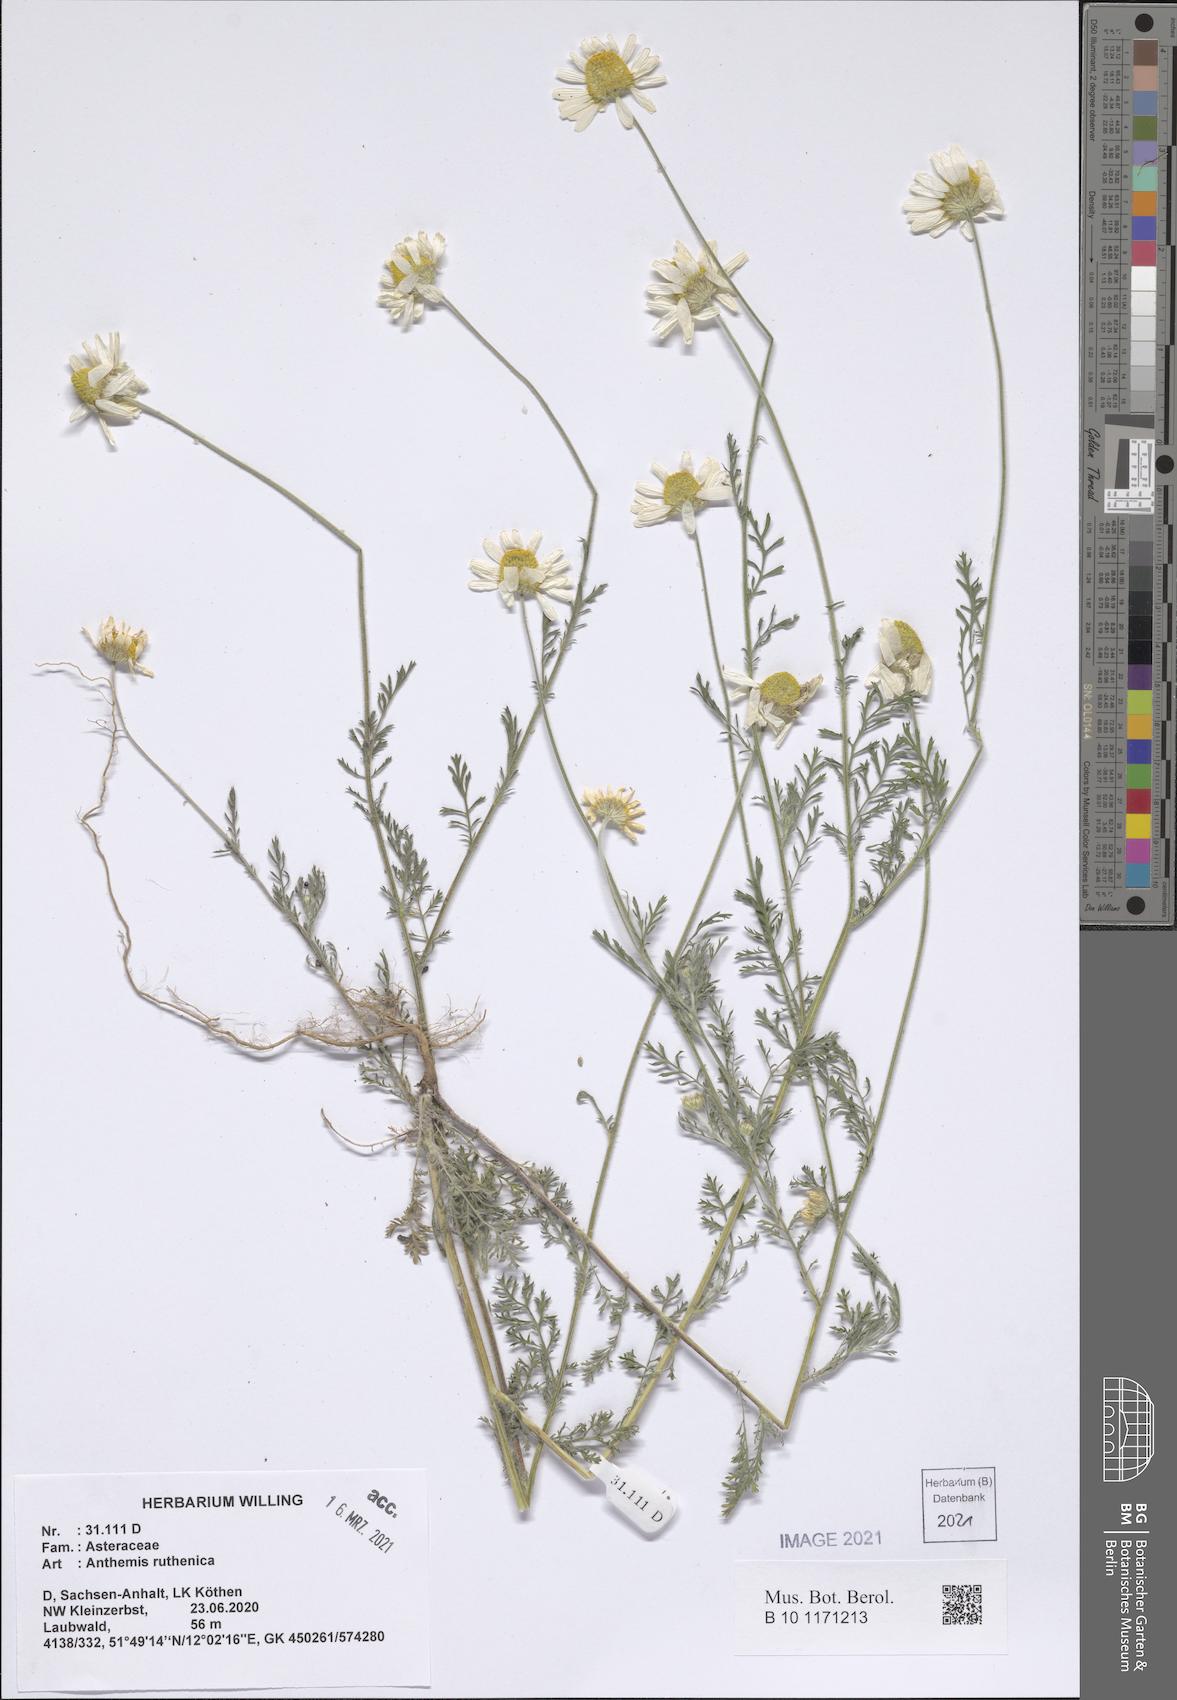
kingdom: Plantae
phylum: Tracheophyta
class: Magnoliopsida
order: Asterales
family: Asteraceae
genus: Anthemis
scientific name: Anthemis ruthenica
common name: Eastern chamomile
